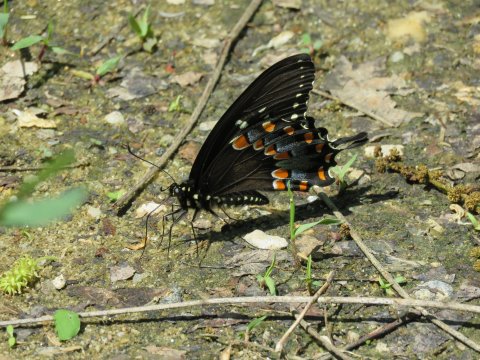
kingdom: Animalia
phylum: Arthropoda
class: Insecta
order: Lepidoptera
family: Papilionidae
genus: Pterourus
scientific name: Pterourus troilus
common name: Spicebush Swallowtail
